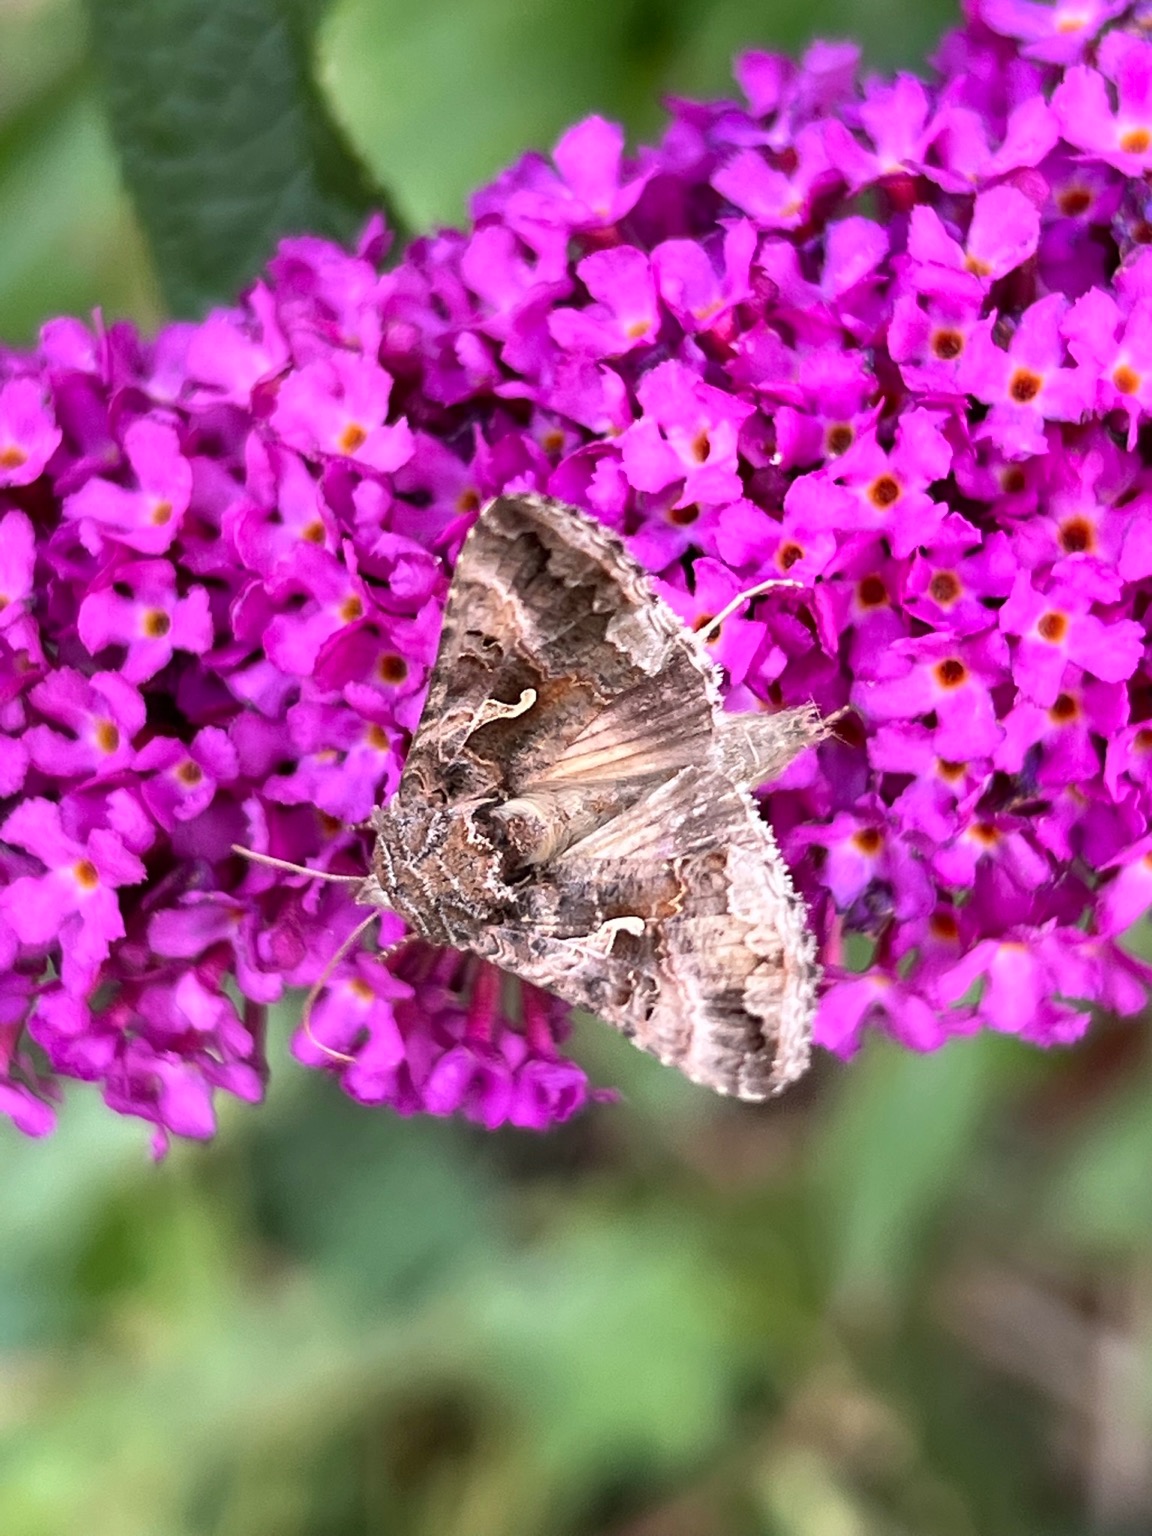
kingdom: Animalia
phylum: Arthropoda
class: Insecta
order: Lepidoptera
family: Noctuidae
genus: Autographa
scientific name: Autographa gamma
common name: Gammaugle
